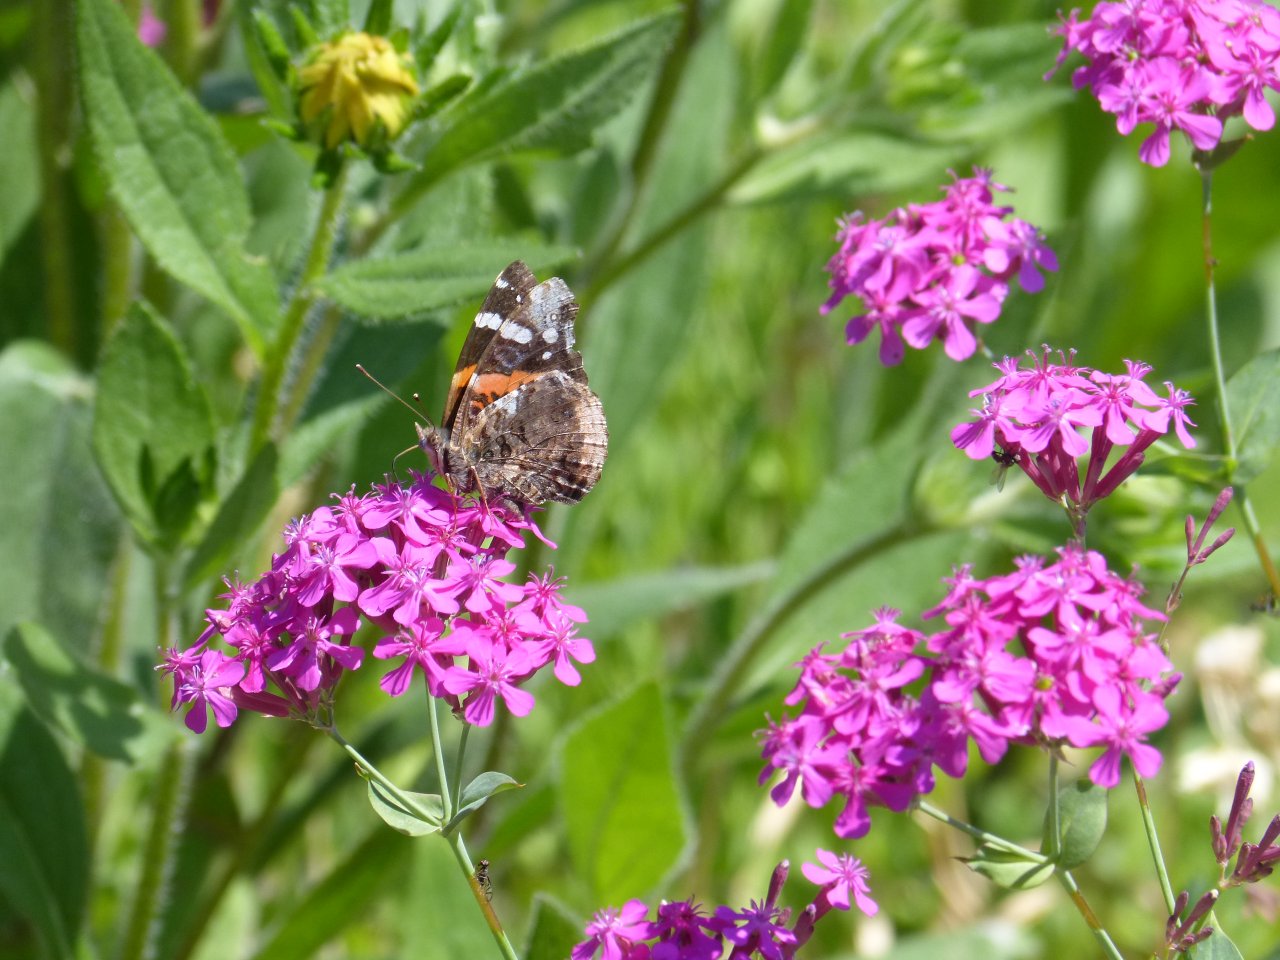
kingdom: Animalia
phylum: Arthropoda
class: Insecta
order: Lepidoptera
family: Nymphalidae
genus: Vanessa
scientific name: Vanessa atalanta
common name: Red Admiral
